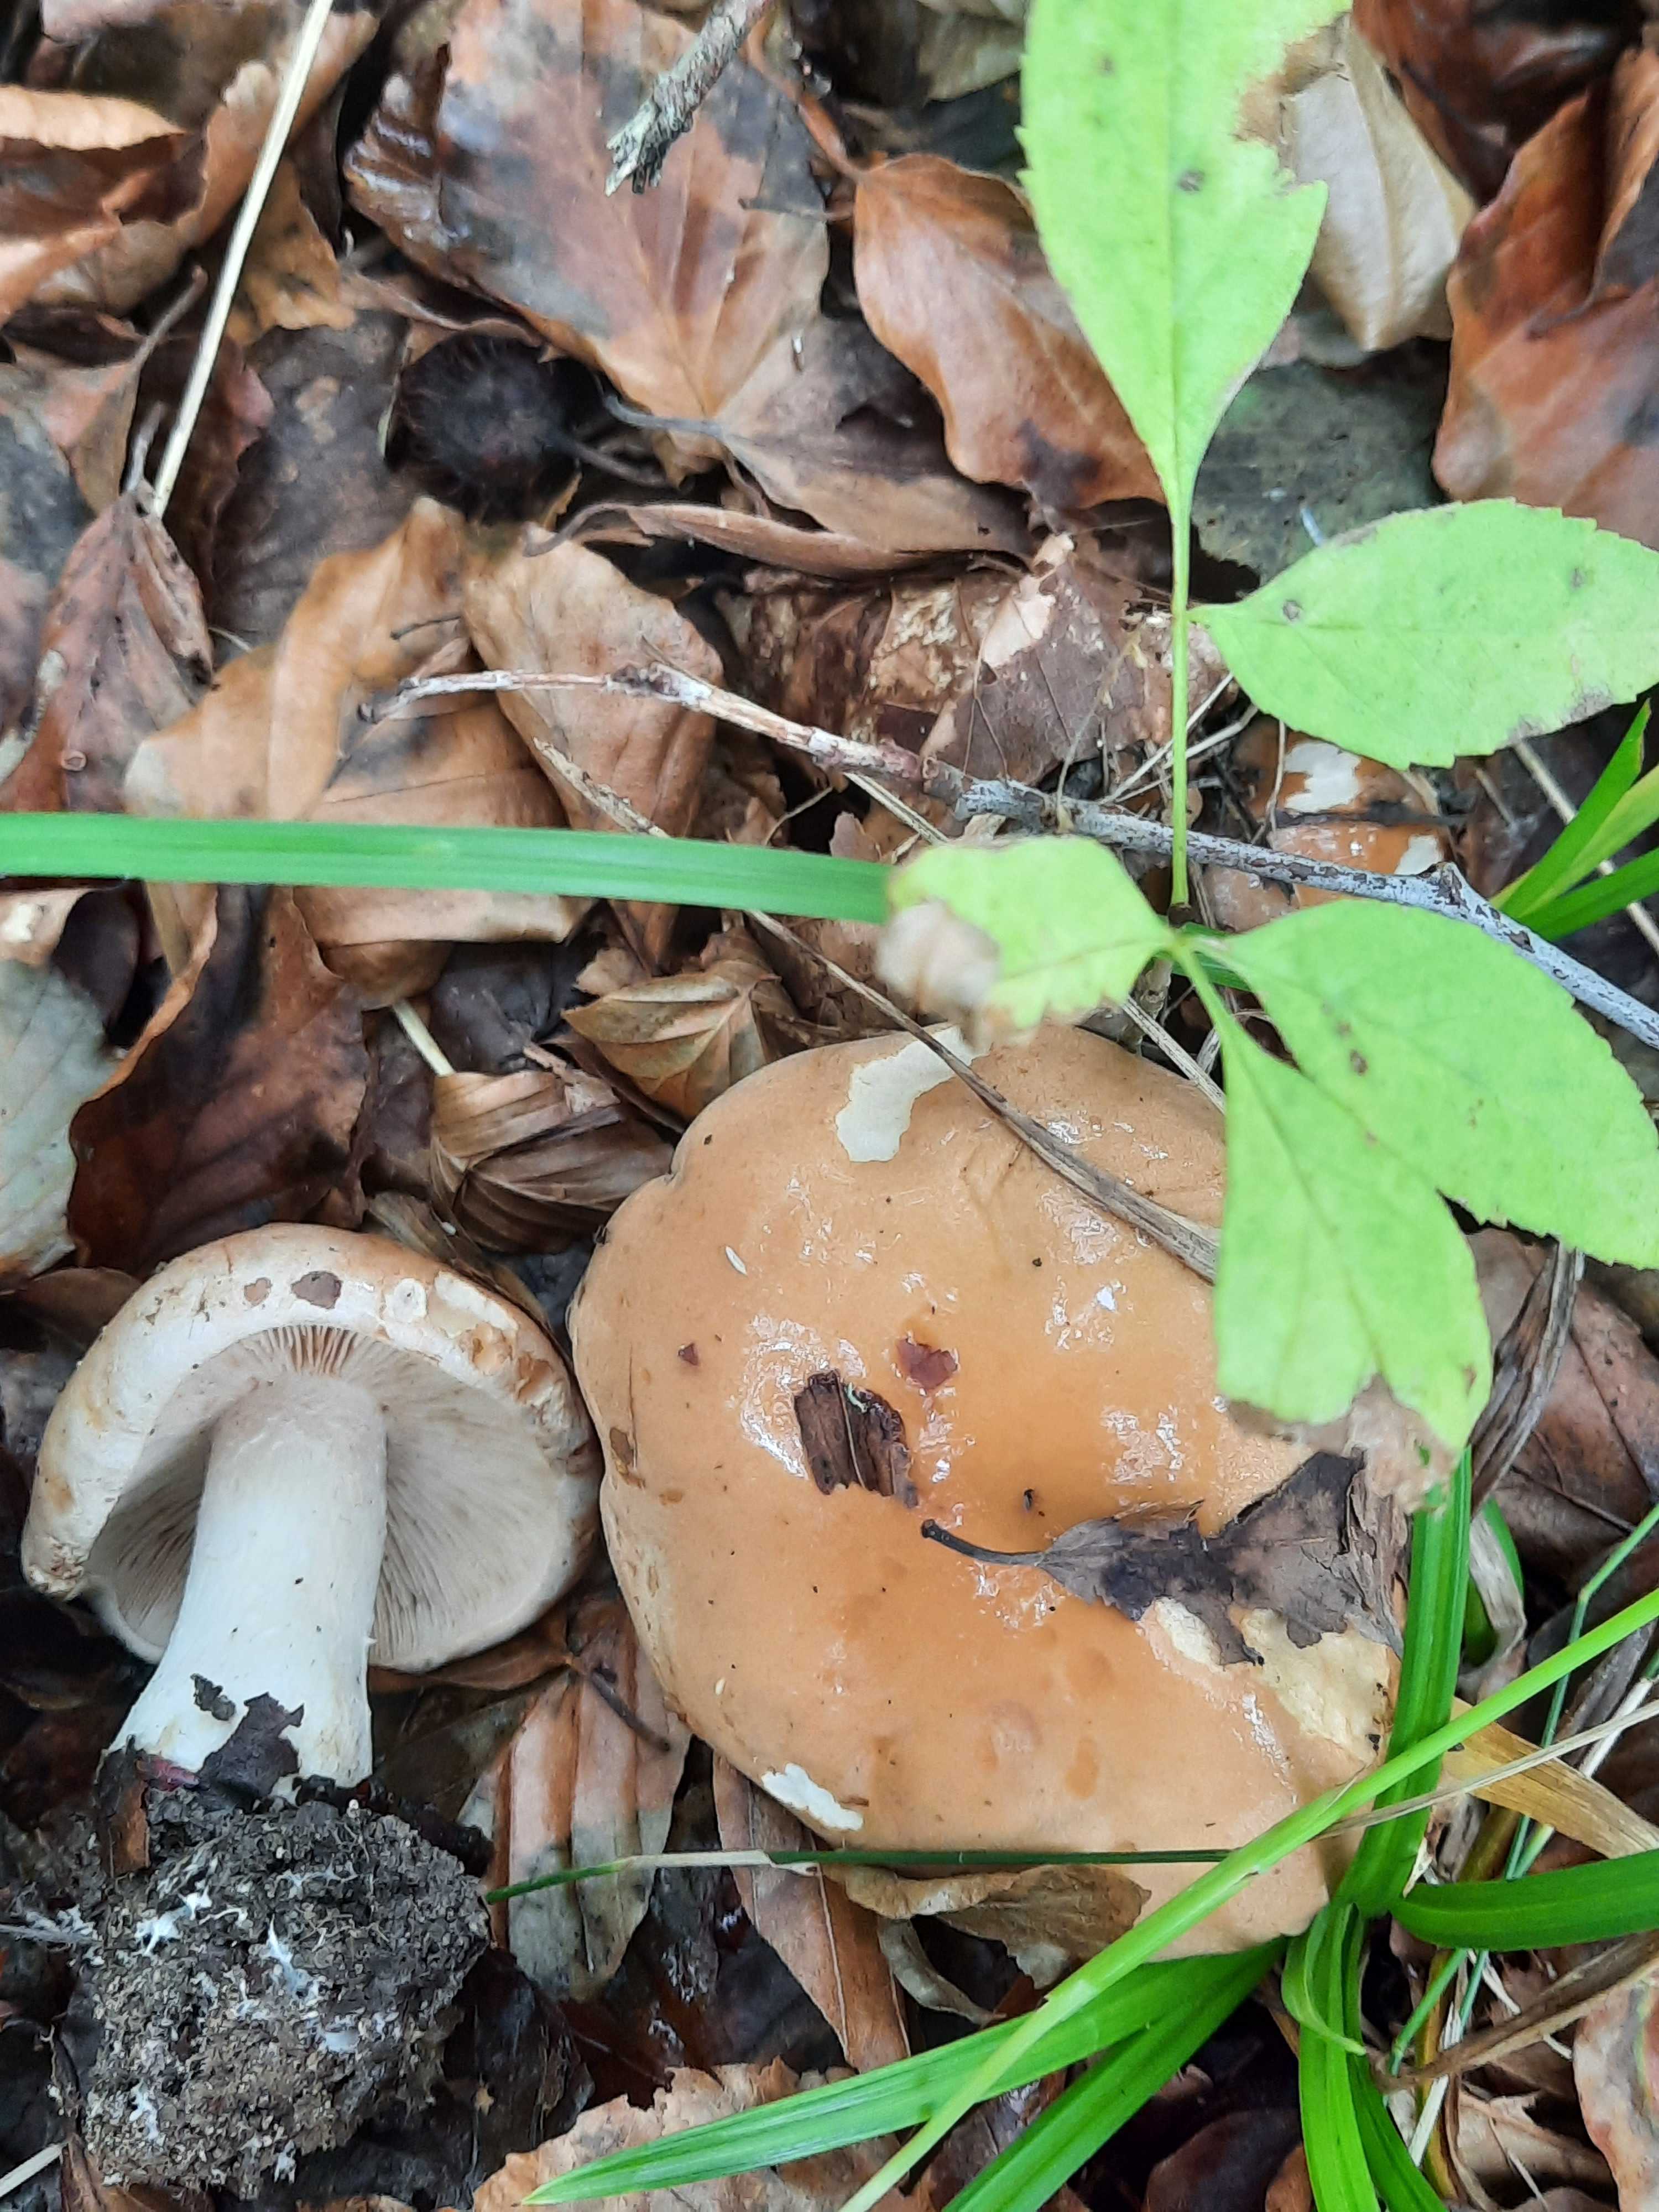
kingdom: Fungi
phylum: Basidiomycota
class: Agaricomycetes
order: Agaricales
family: Hymenogastraceae
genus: Hebeloma
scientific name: Hebeloma sinapizans
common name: ræddike-tåreblad
